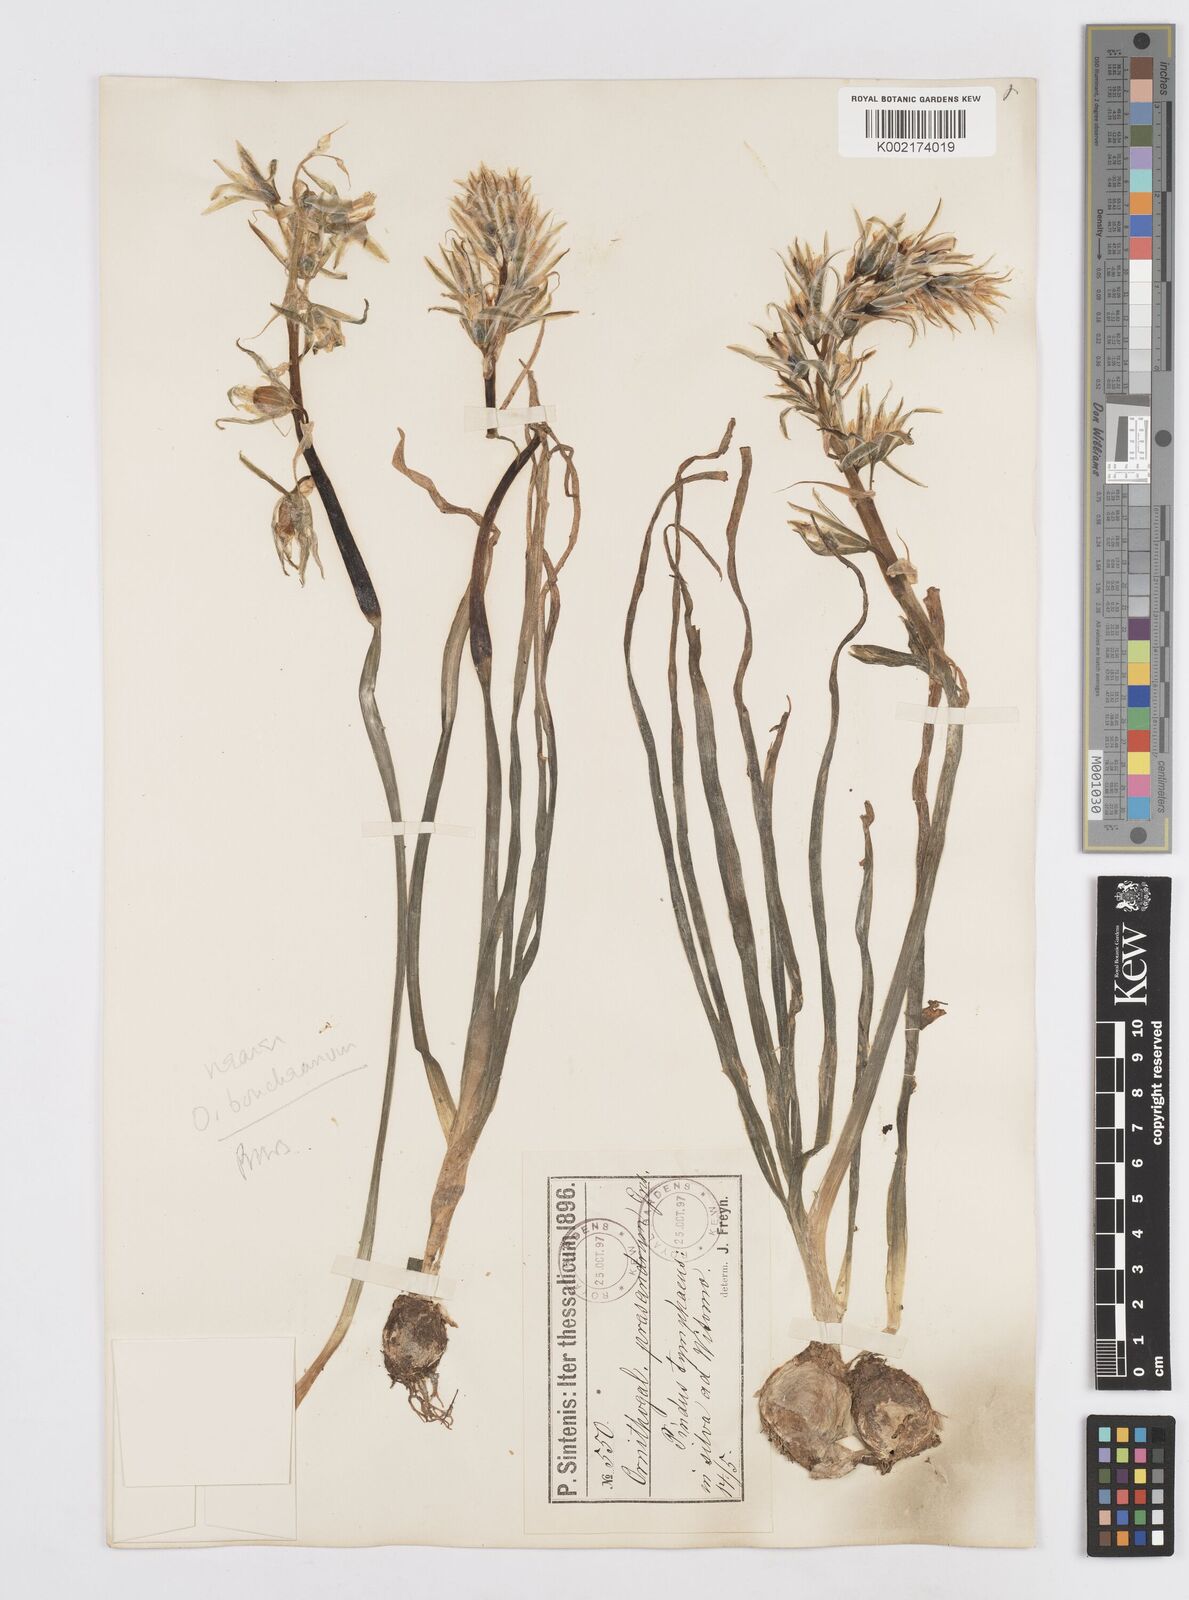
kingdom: Plantae
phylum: Tracheophyta
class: Liliopsida
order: Asparagales
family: Asparagaceae
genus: Ornithogalum
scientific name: Ornithogalum nutans
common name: Drooping star-of-bethlehem
